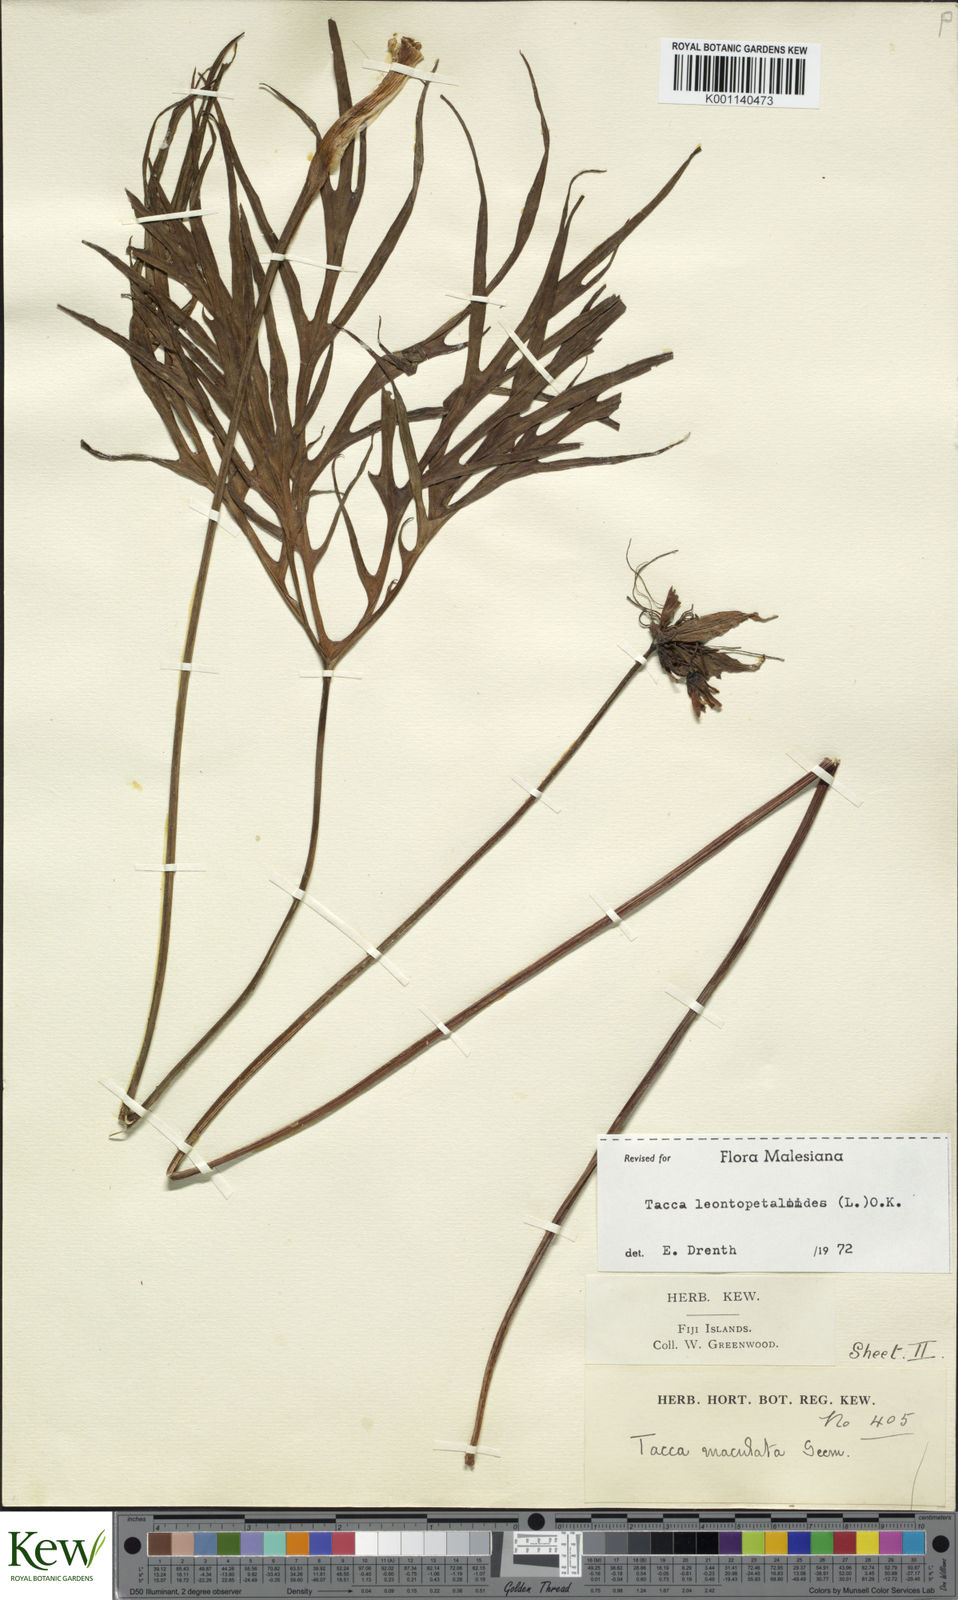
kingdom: Plantae
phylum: Tracheophyta
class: Liliopsida
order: Dioscoreales
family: Dioscoreaceae
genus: Tacca
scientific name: Tacca leontopetaloides
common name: Arrowroot
